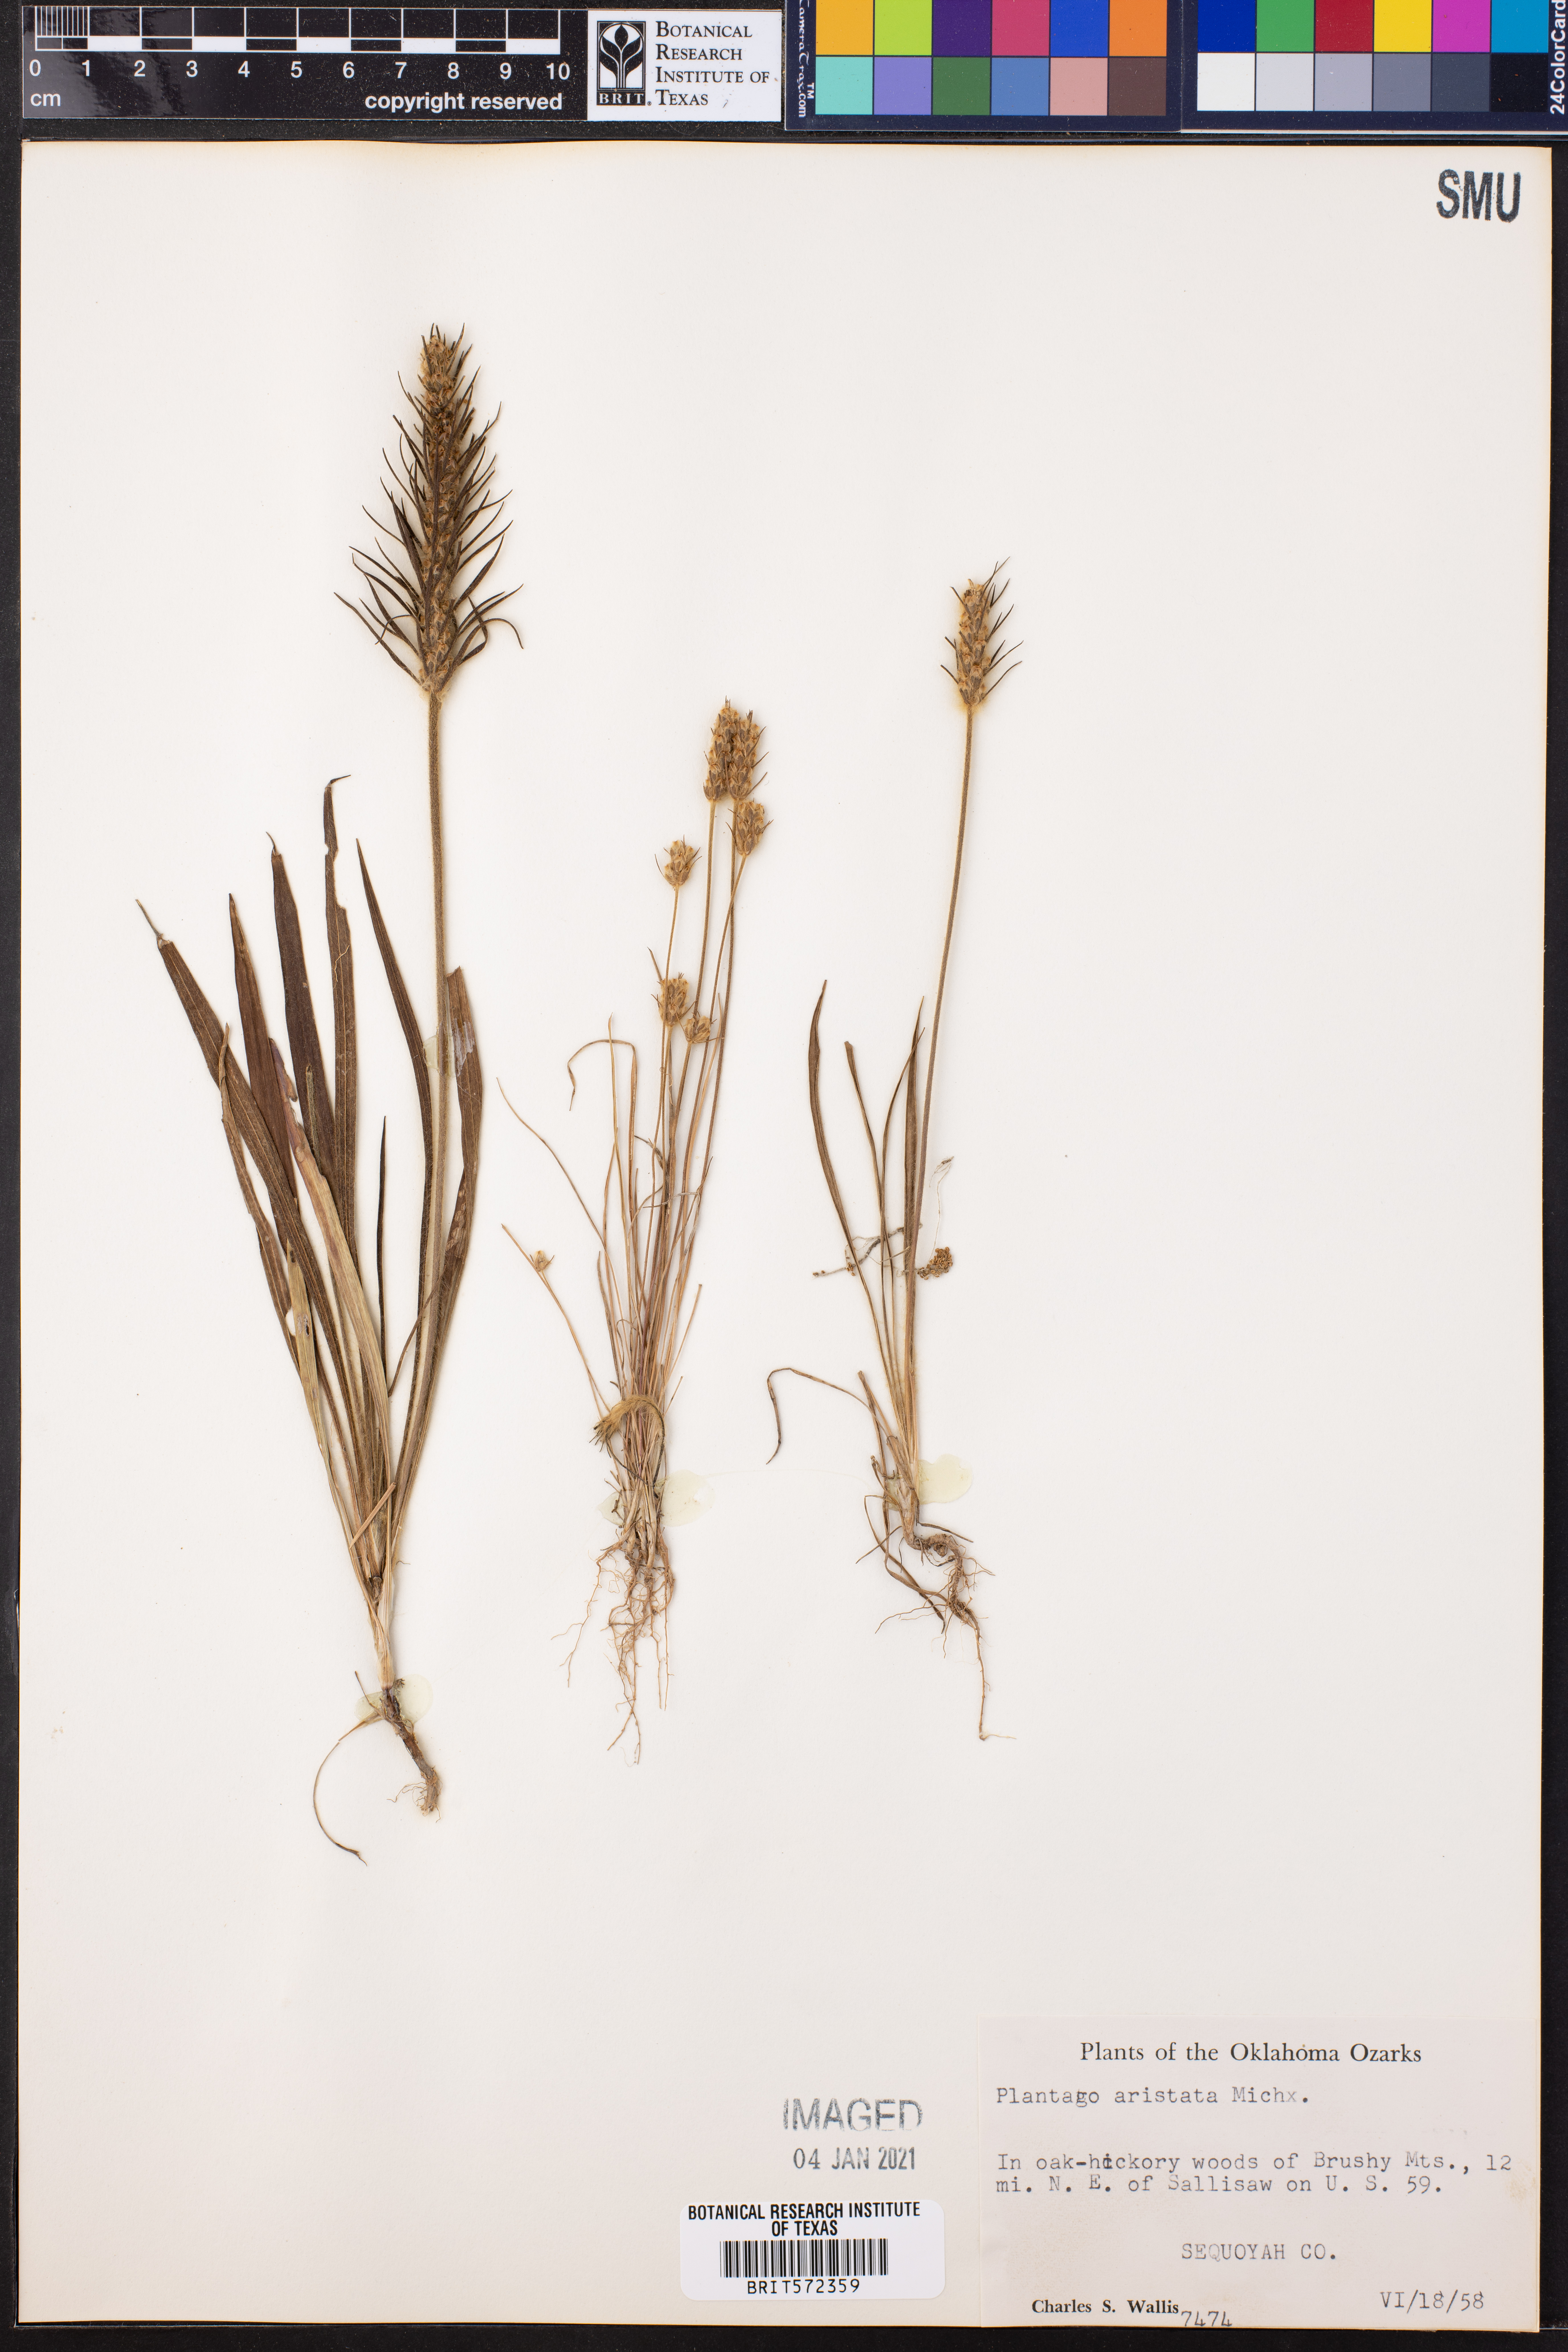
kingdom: Plantae
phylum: Tracheophyta
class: Magnoliopsida
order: Lamiales
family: Plantaginaceae
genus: Plantago
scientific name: Plantago aristata
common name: Bracted plantain
